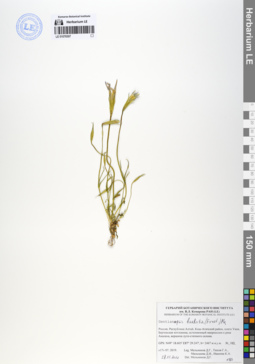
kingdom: Plantae
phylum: Tracheophyta
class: Magnoliopsida
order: Gentianales
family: Gentianaceae
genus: Gentianopsis
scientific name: Gentianopsis barbata
